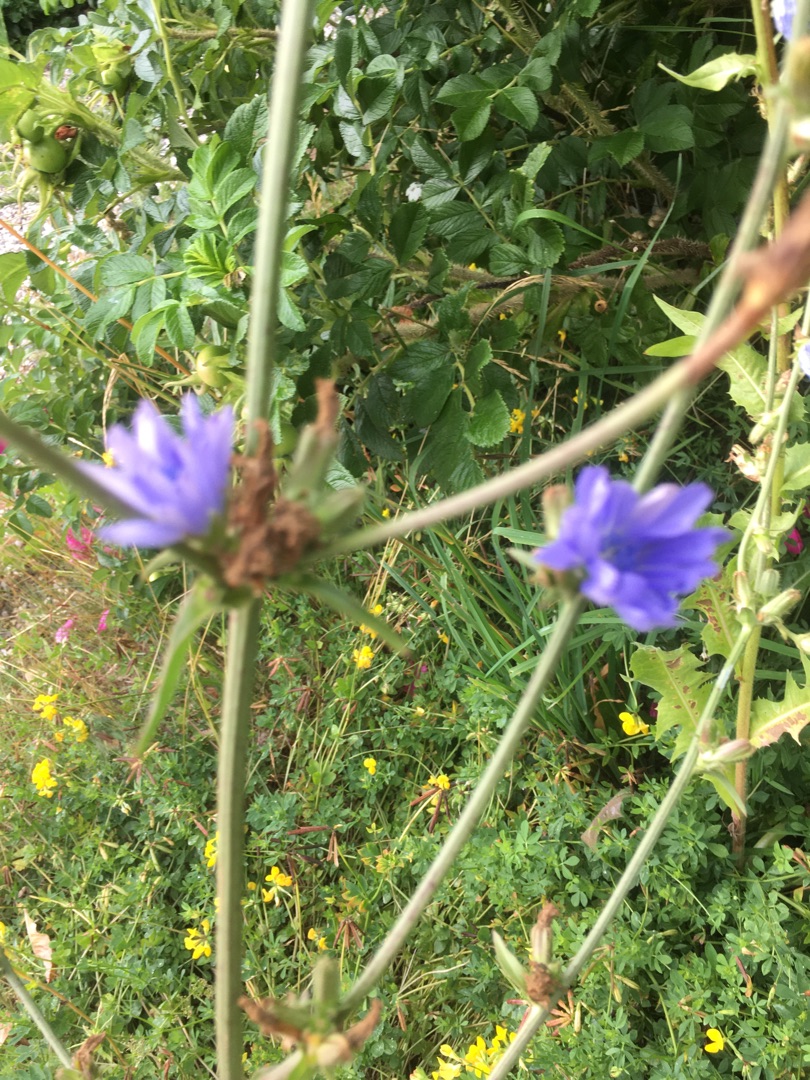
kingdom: Plantae
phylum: Tracheophyta
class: Magnoliopsida
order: Asterales
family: Asteraceae
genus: Cichorium
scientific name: Cichorium intybus
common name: Cikorie
